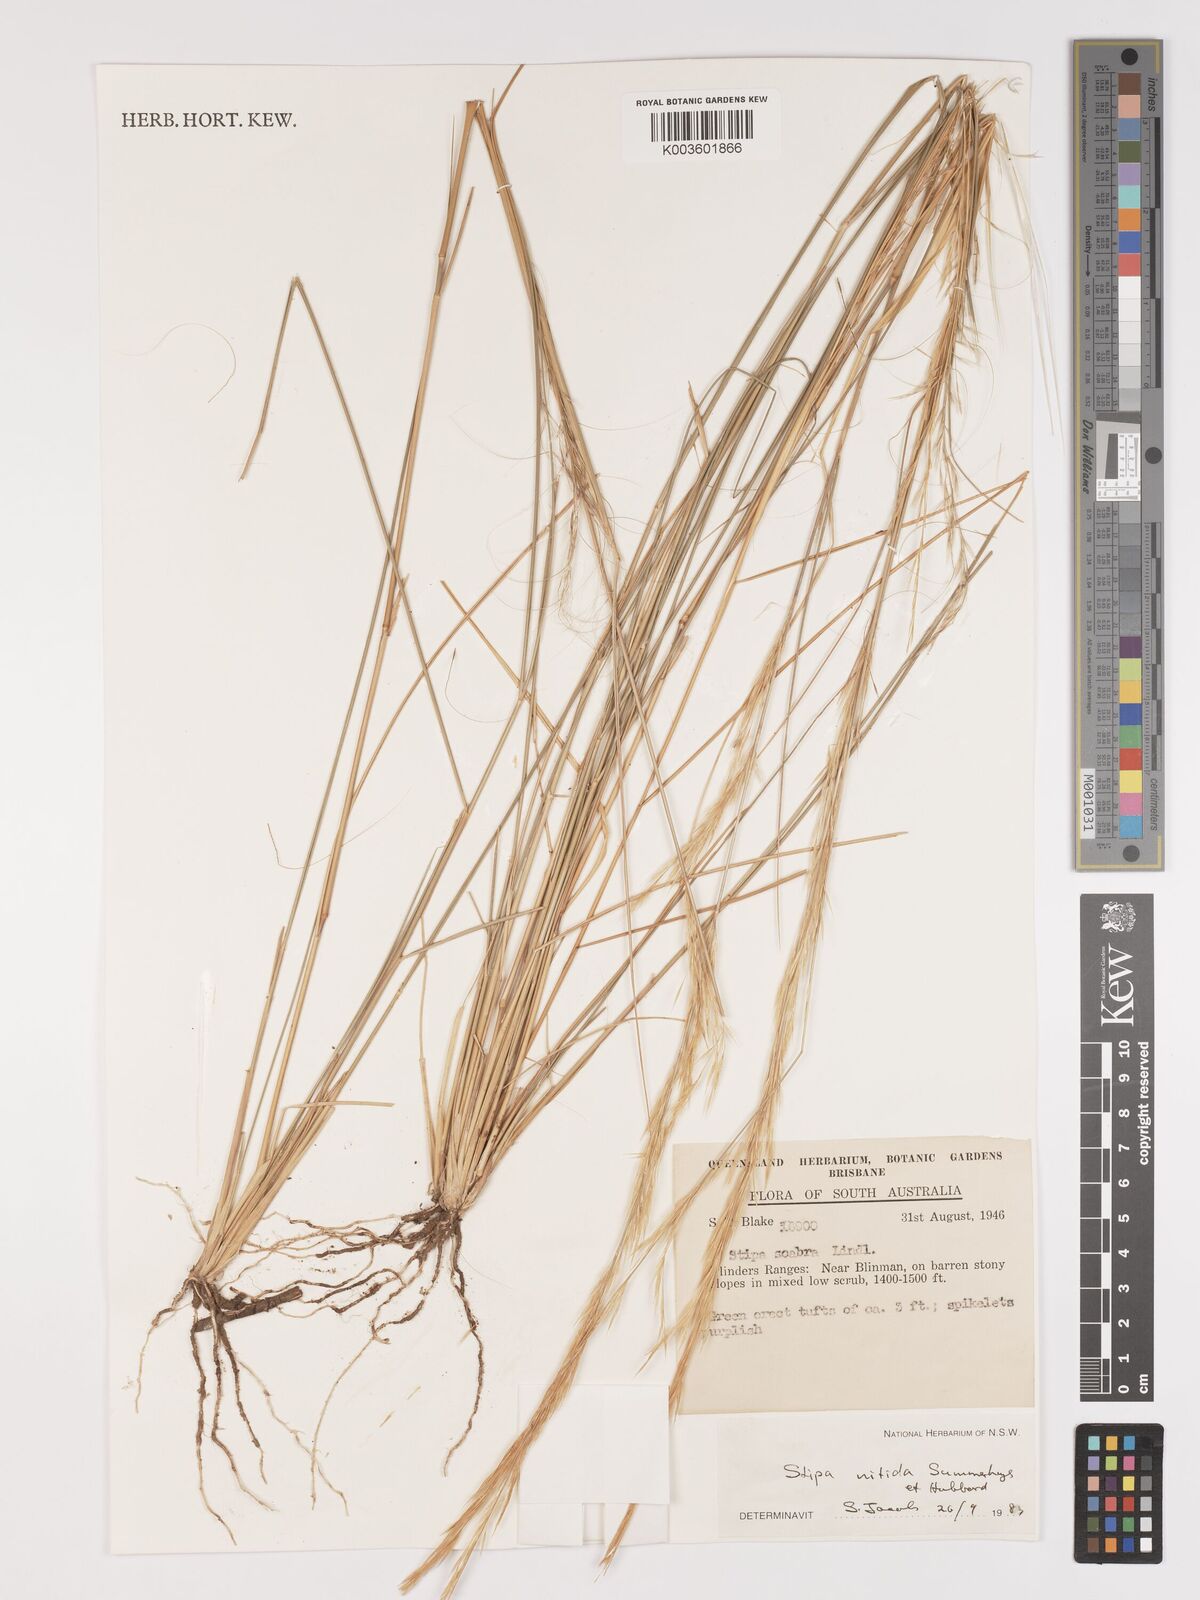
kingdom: Plantae
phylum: Tracheophyta
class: Liliopsida
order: Poales
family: Poaceae
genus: Austrostipa
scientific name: Austrostipa nitida
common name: Balcarra grass
